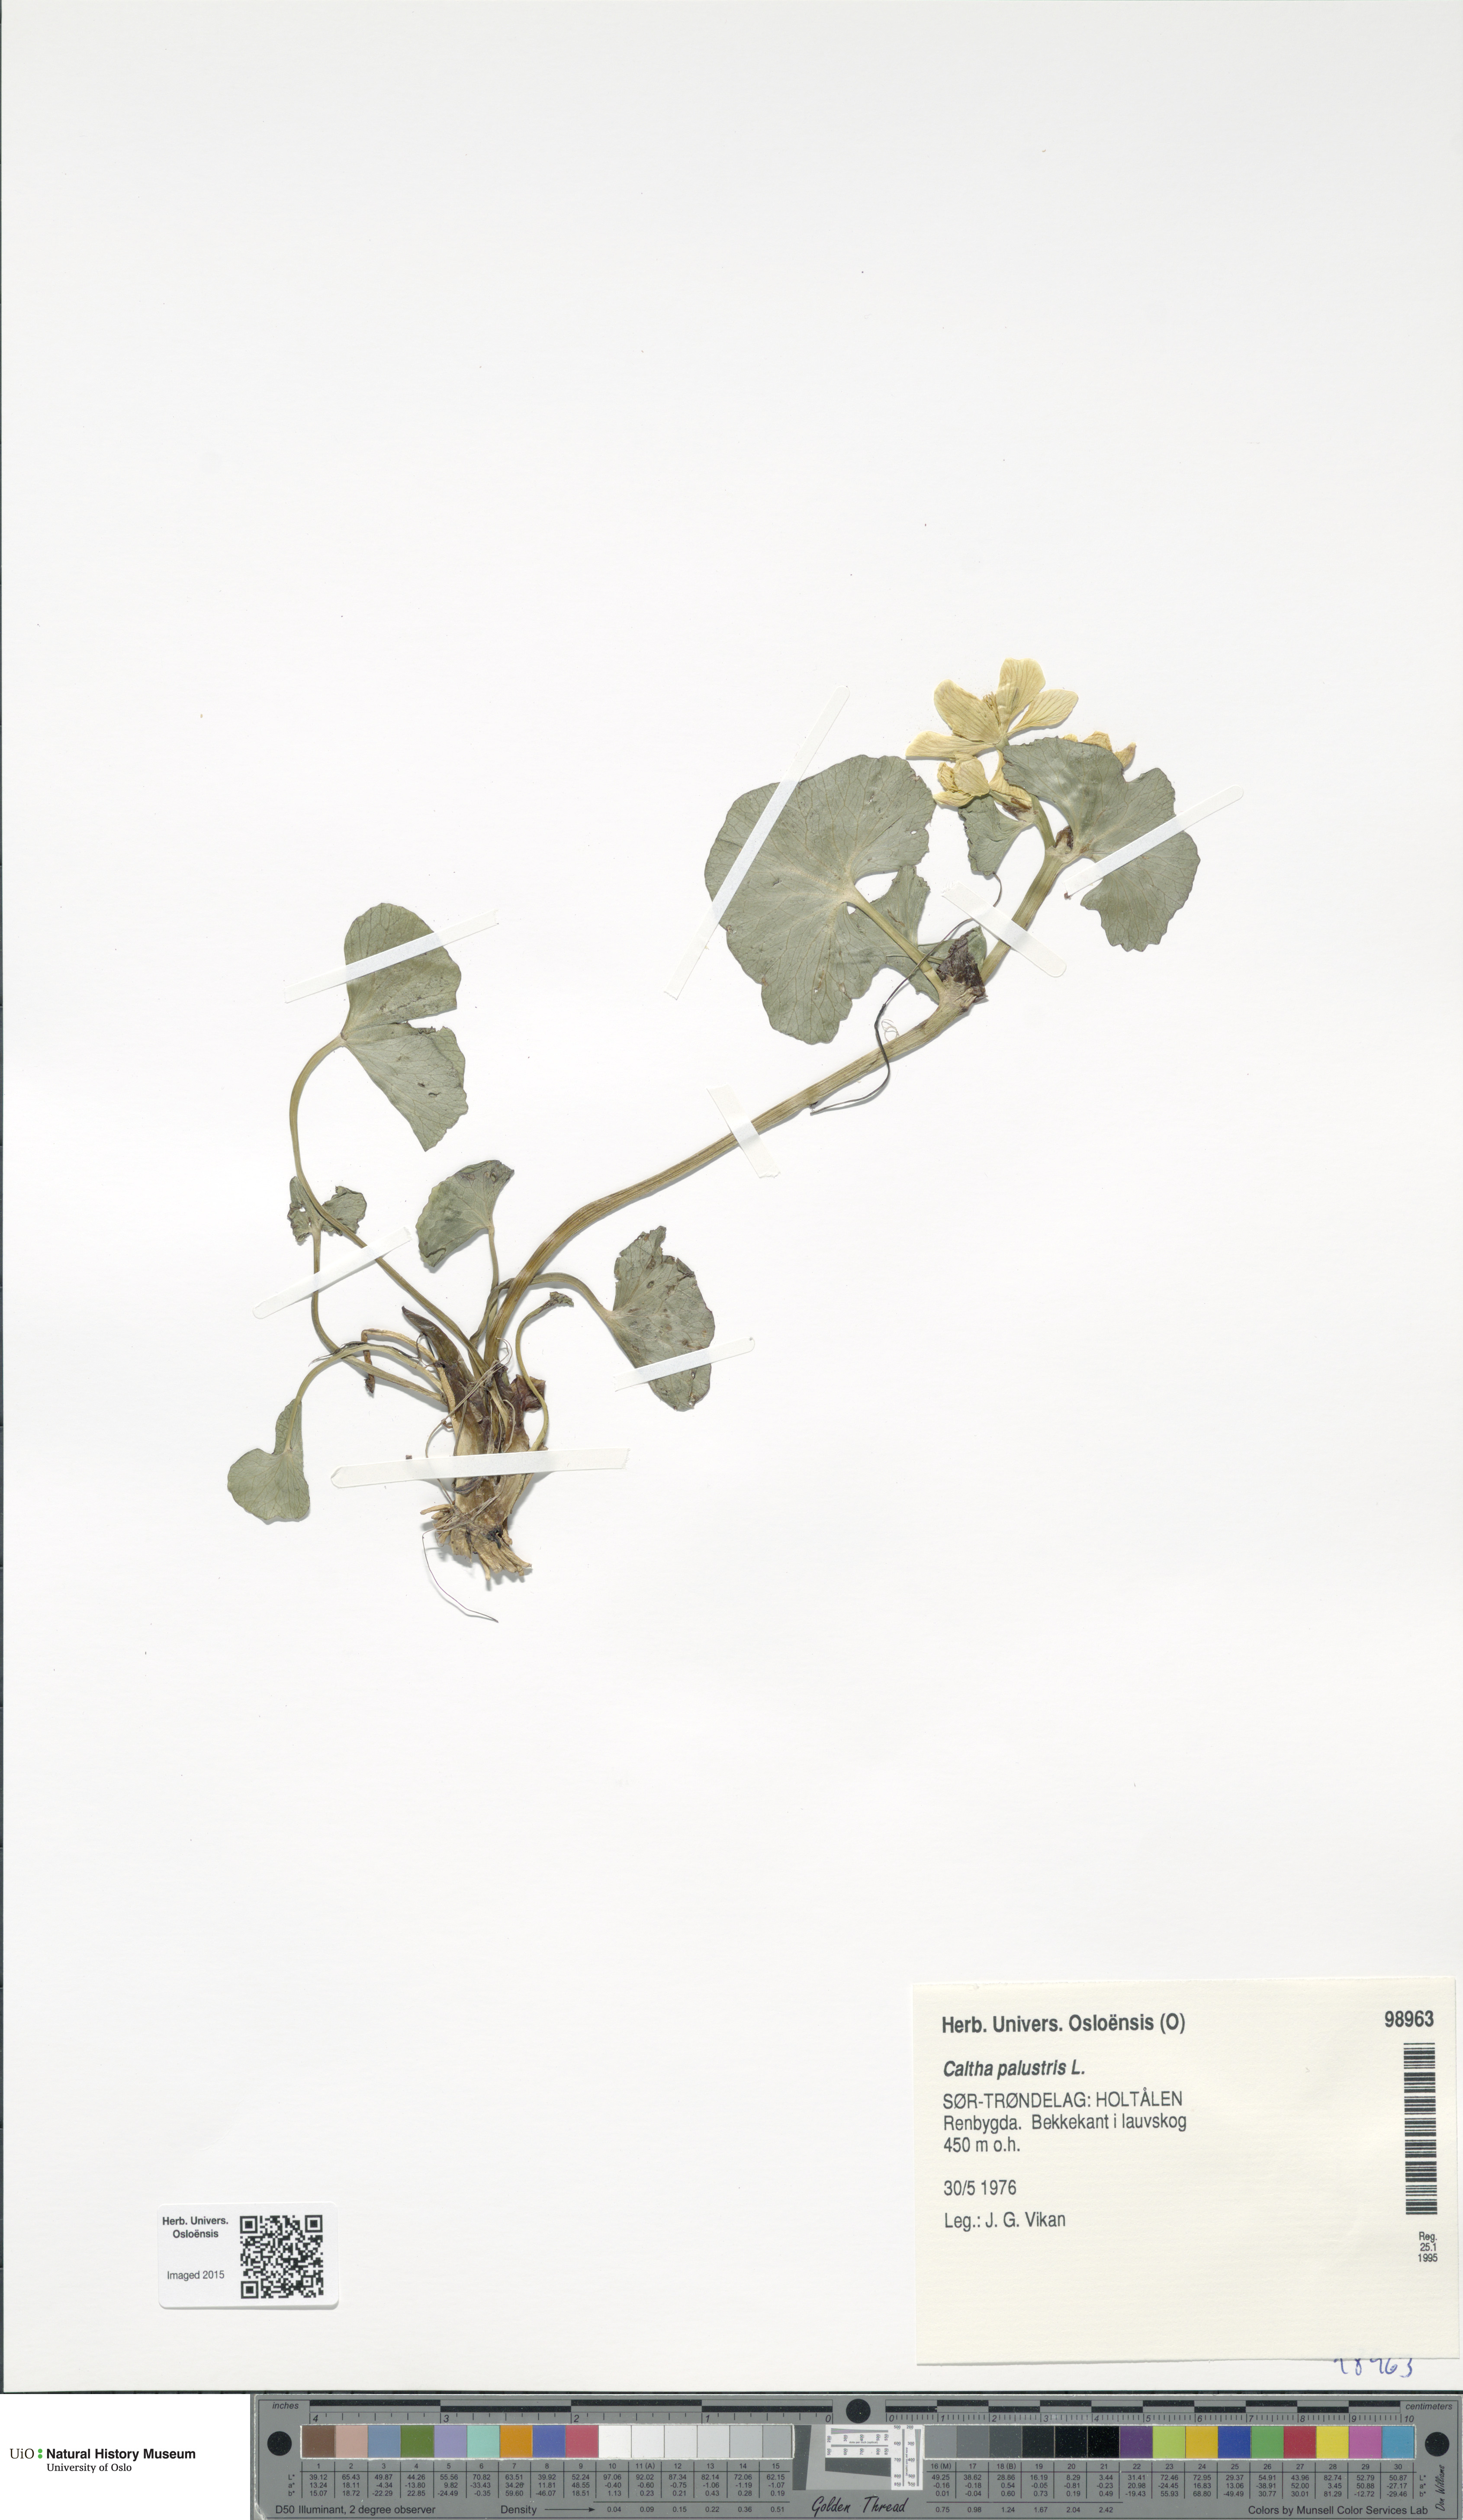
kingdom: Plantae
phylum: Tracheophyta
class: Magnoliopsida
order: Ranunculales
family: Ranunculaceae
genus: Caltha
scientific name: Caltha palustris
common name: Marsh marigold
